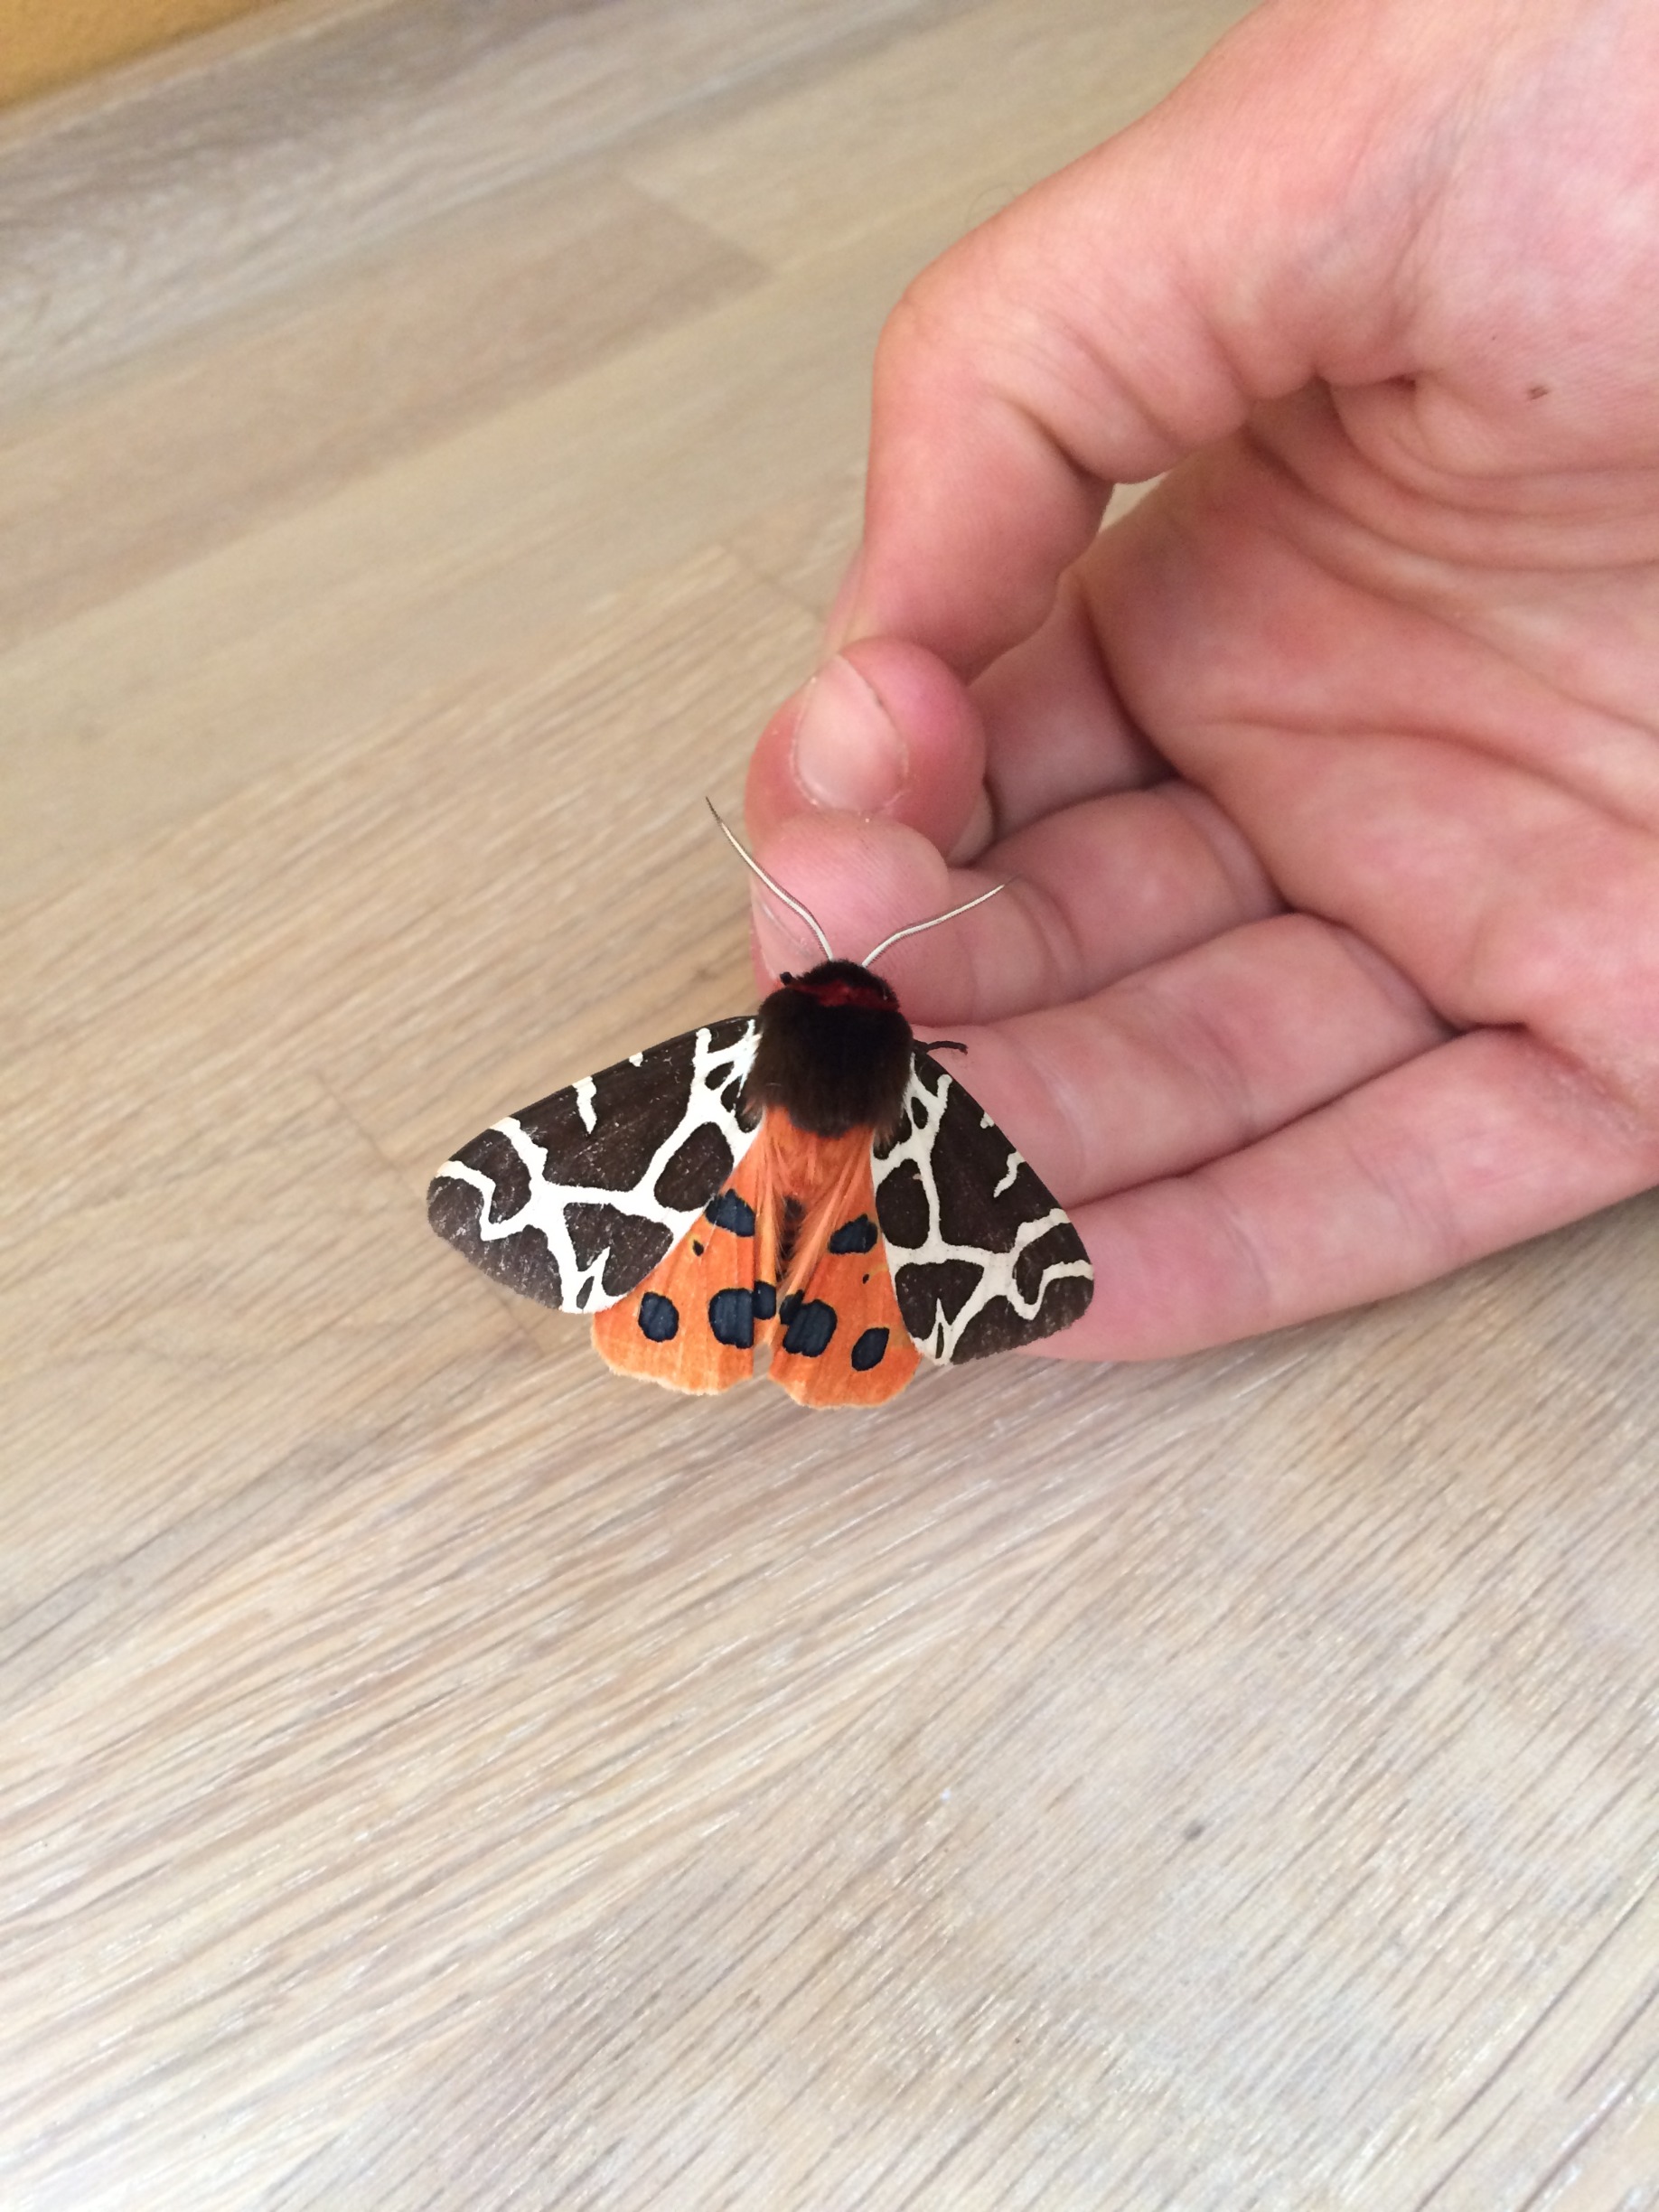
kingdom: Animalia
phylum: Arthropoda
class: Insecta
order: Lepidoptera
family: Erebidae
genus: Arctia
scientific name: Arctia caja
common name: Brun bjørn
